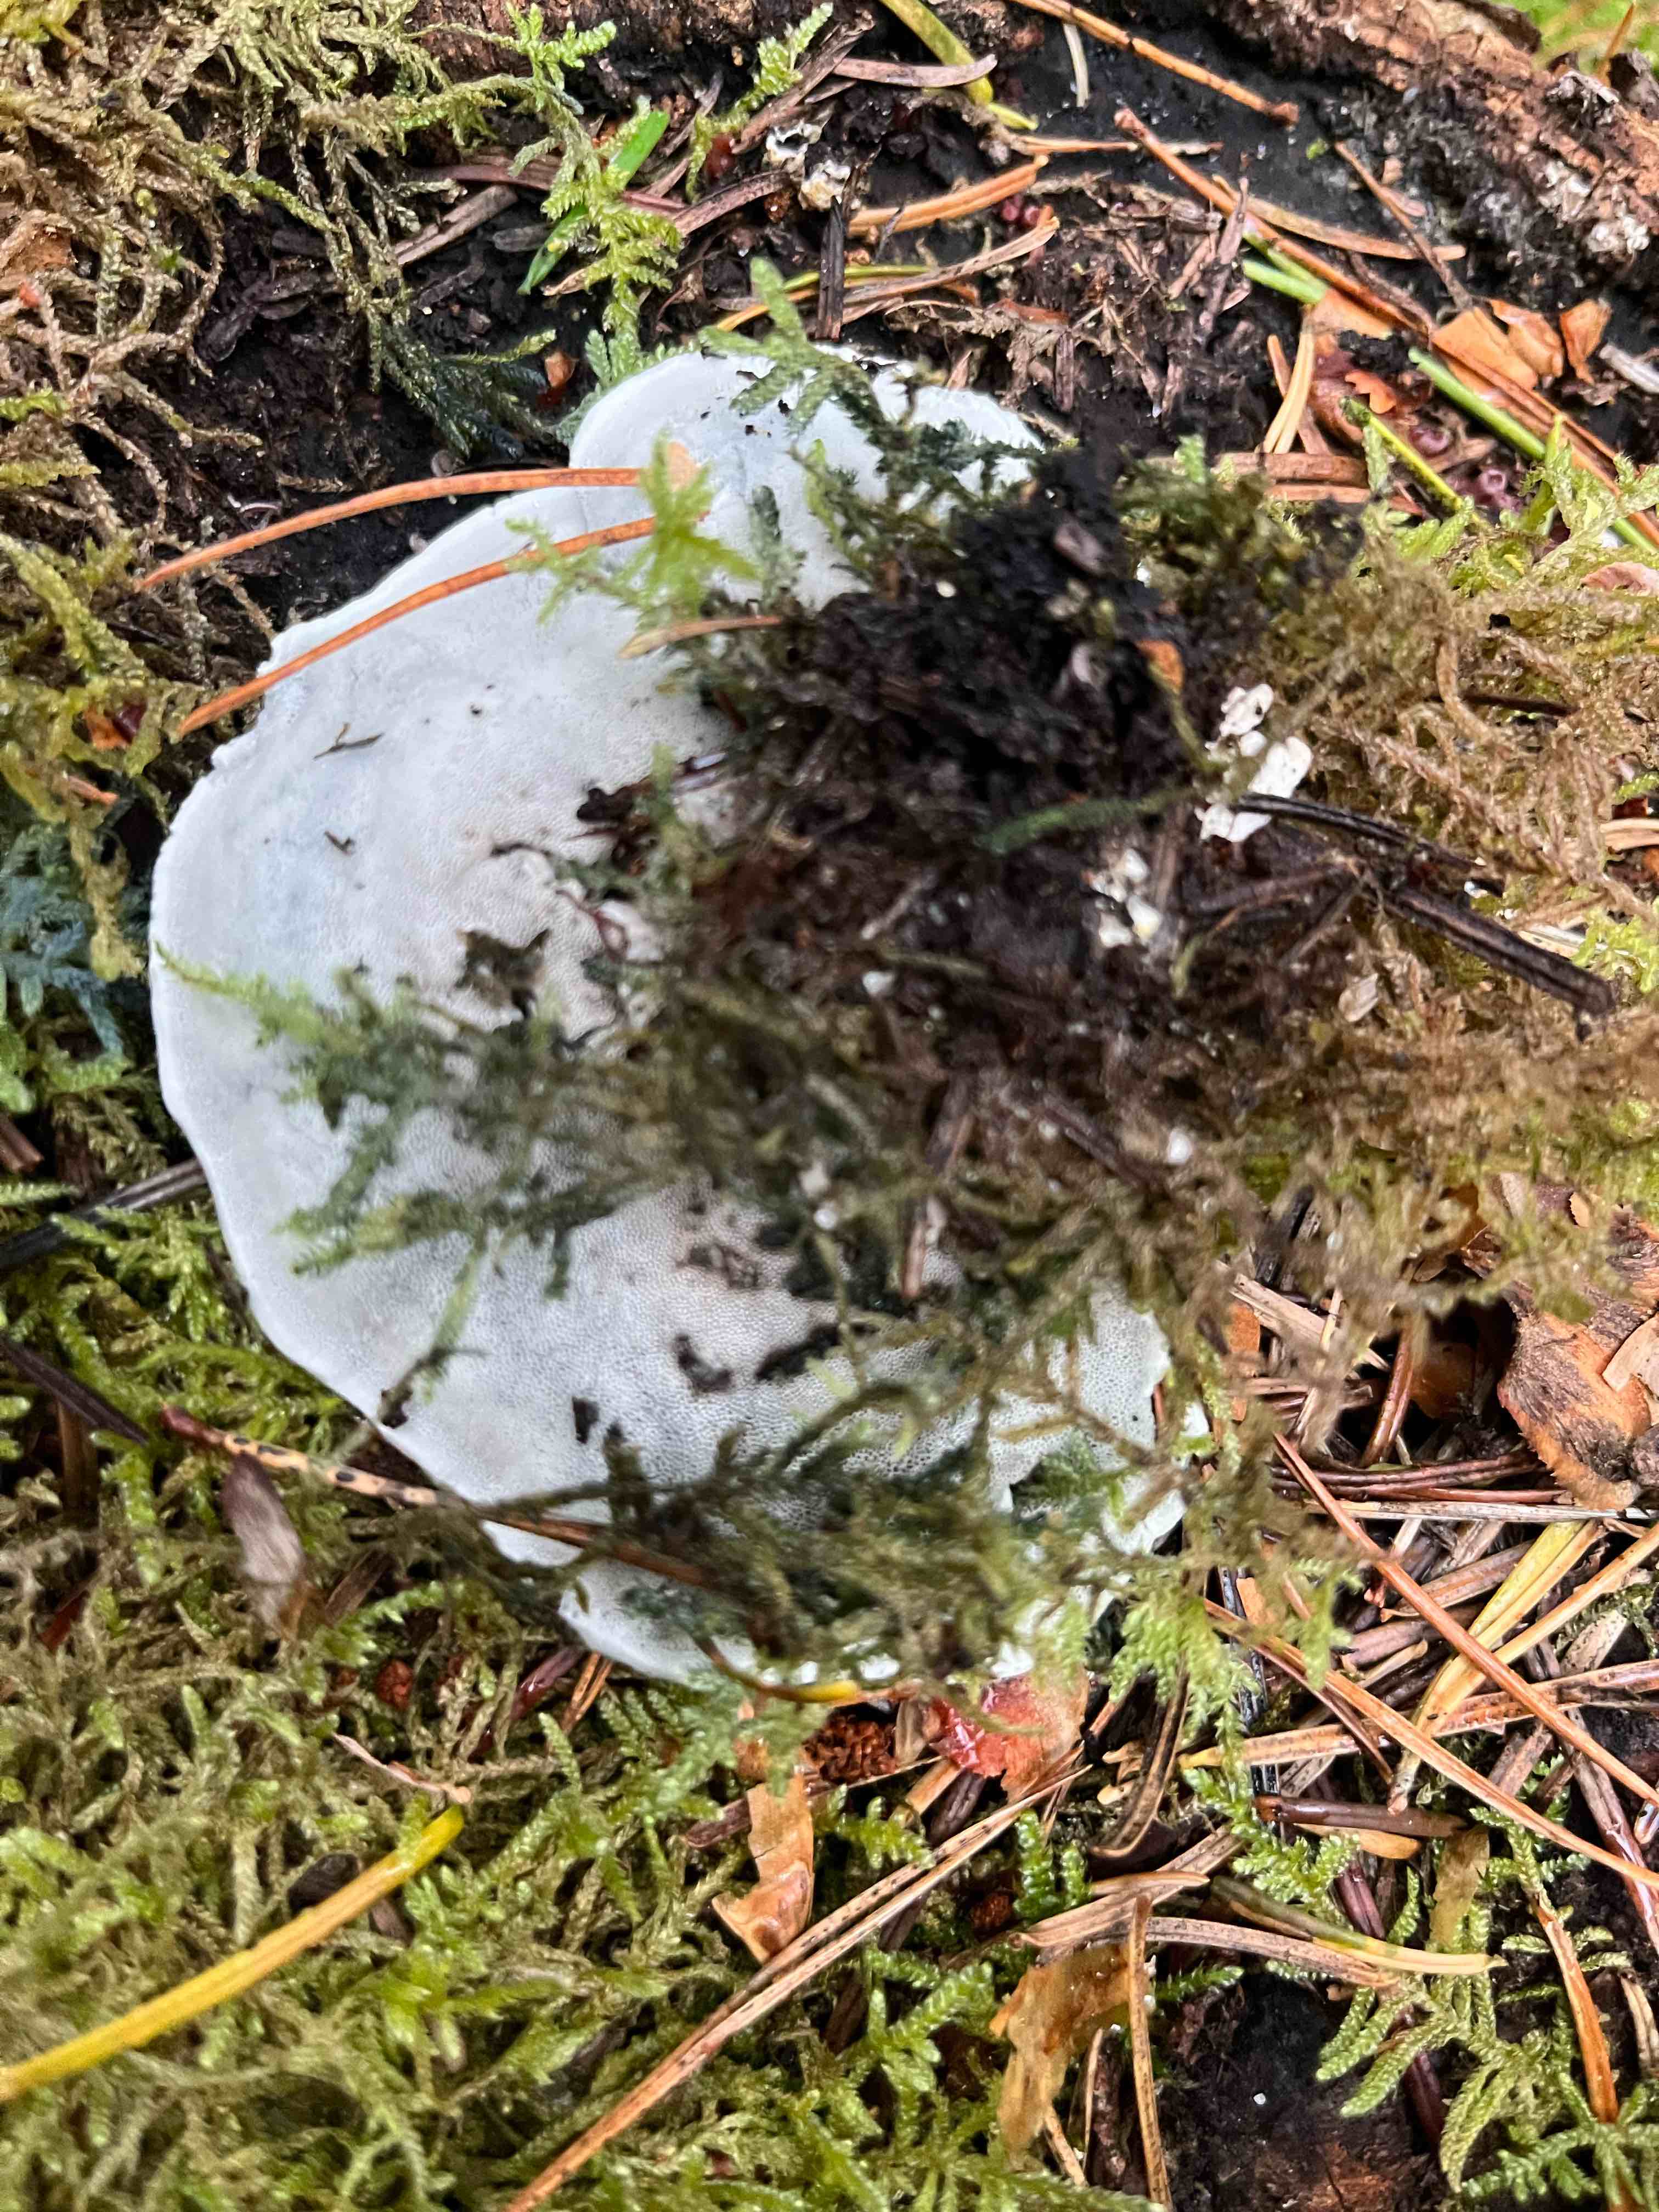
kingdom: Fungi
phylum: Basidiomycota
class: Agaricomycetes
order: Polyporales
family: Polyporaceae
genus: Cyanosporus
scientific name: Cyanosporus caesius
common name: blålig kødporesvamp
